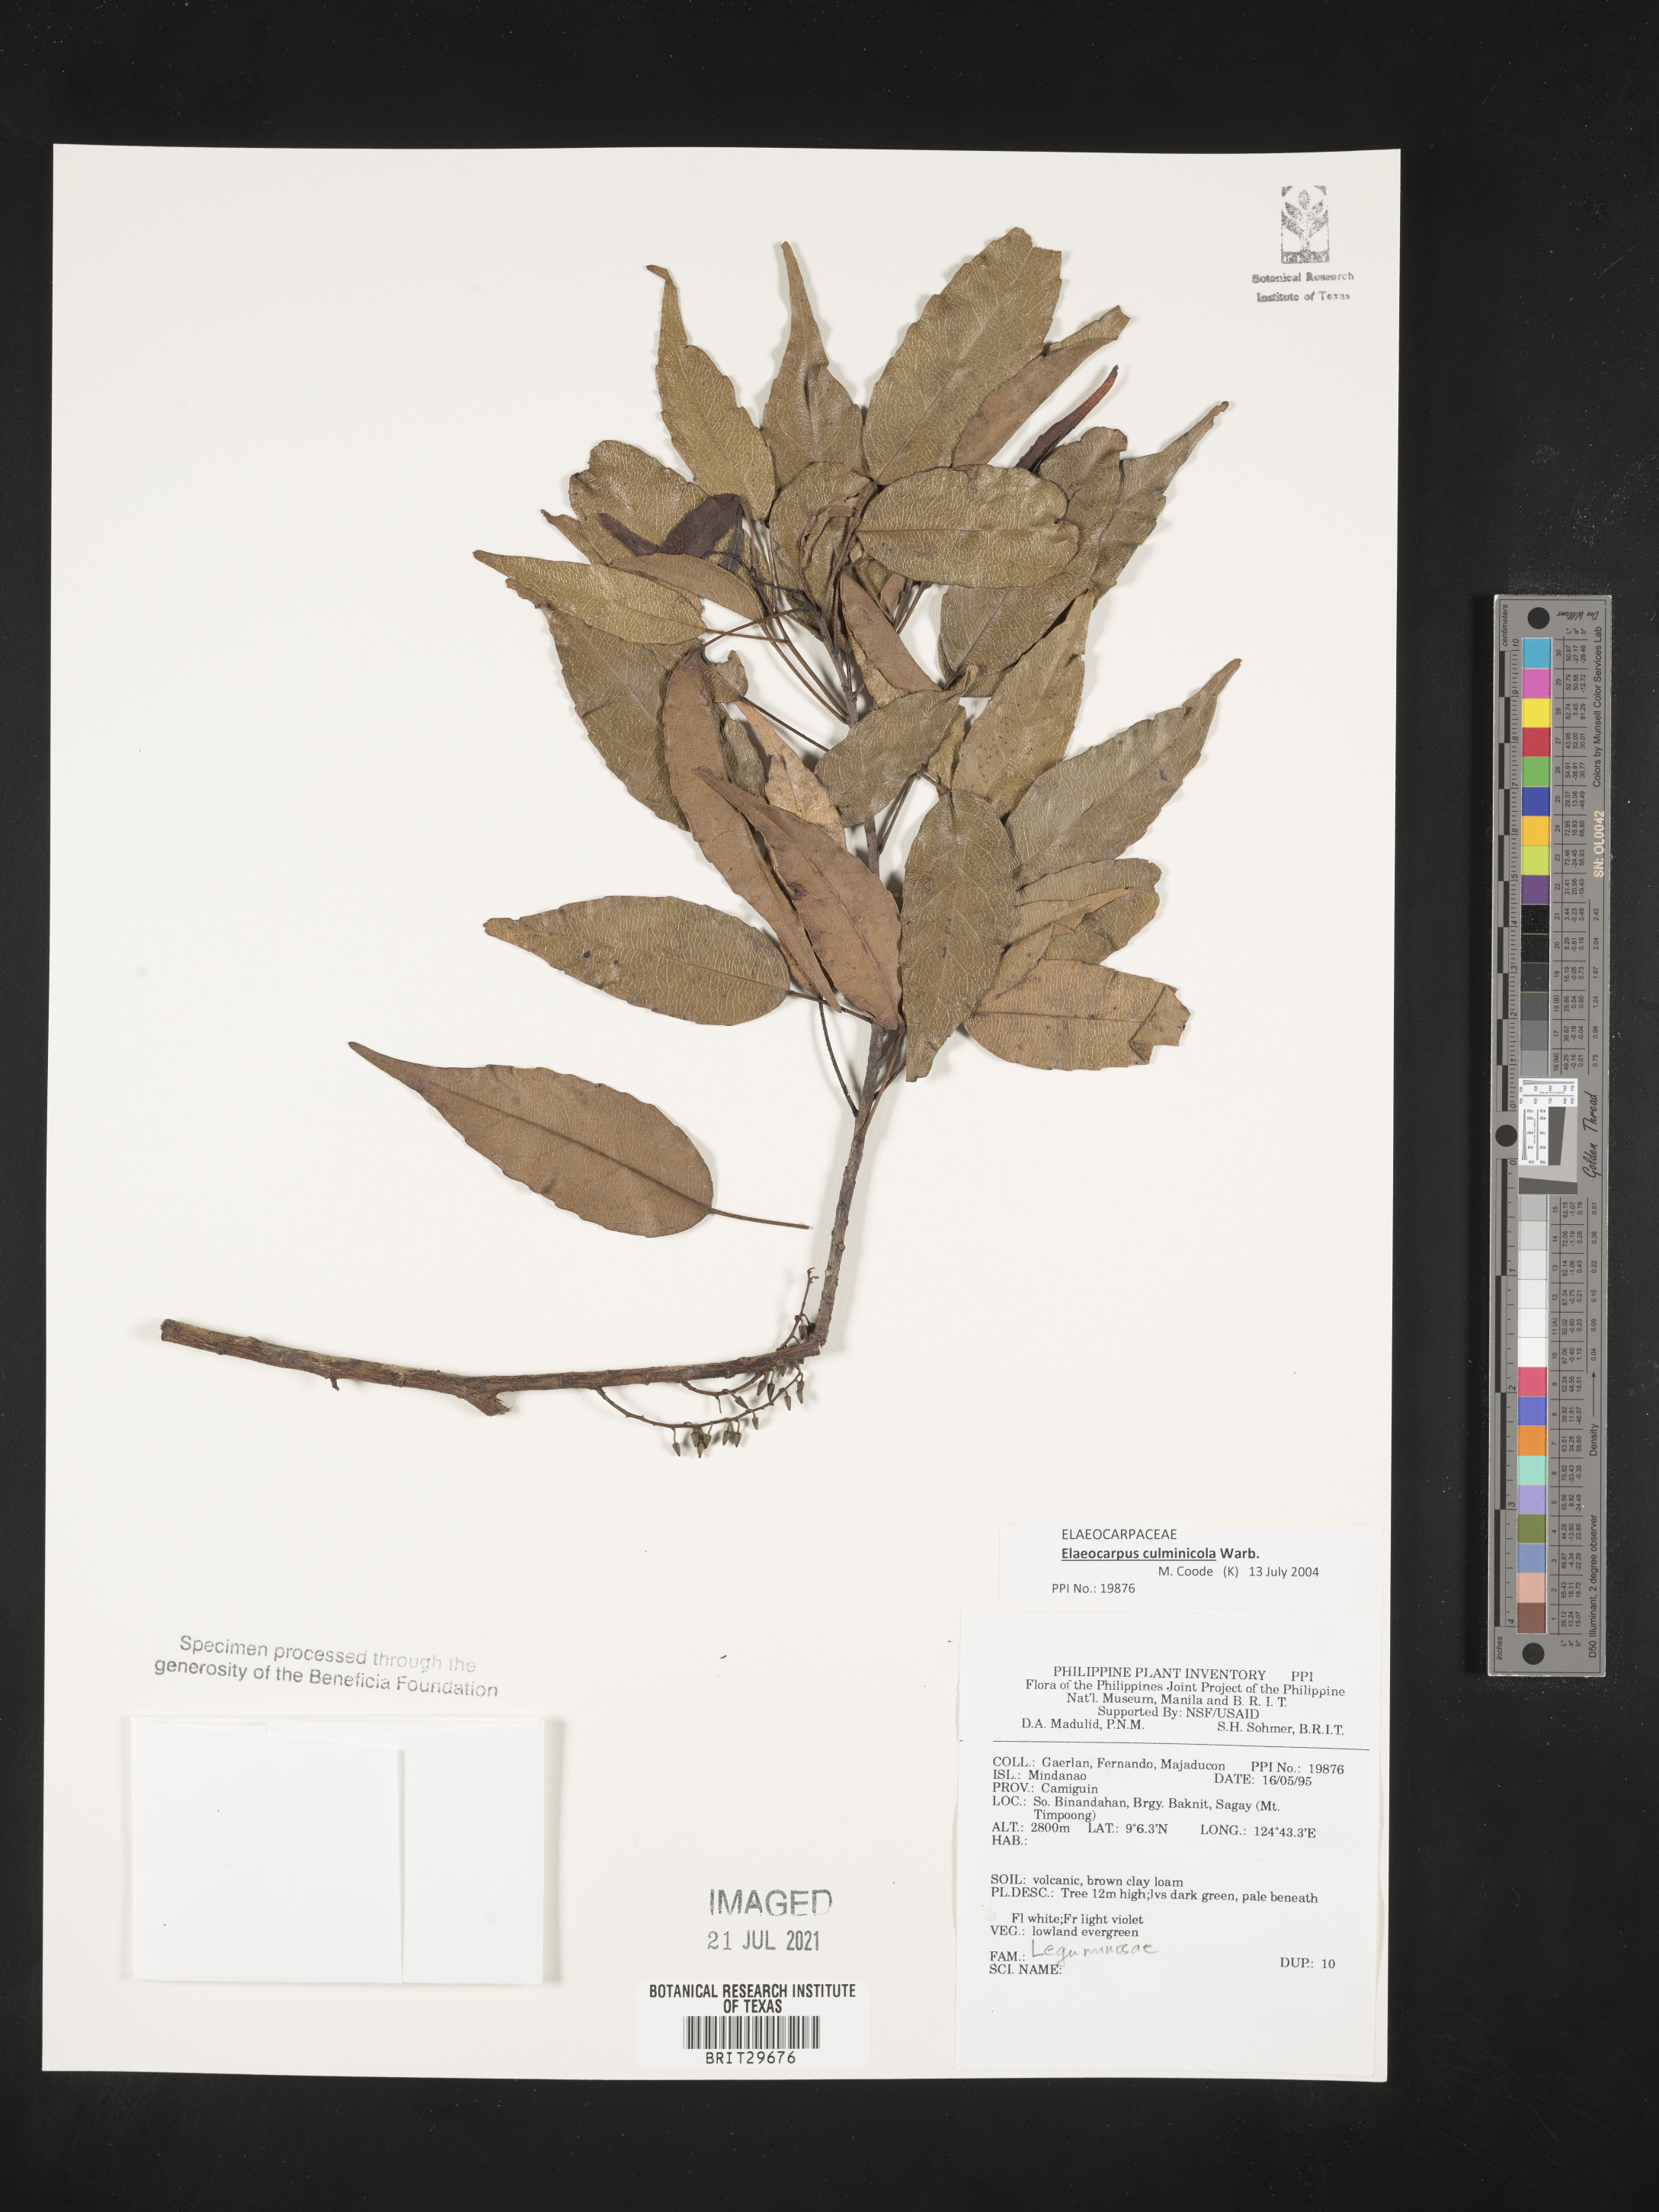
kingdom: Plantae
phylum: Tracheophyta
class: Magnoliopsida
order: Fabales
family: Fabaceae
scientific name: Fabaceae
